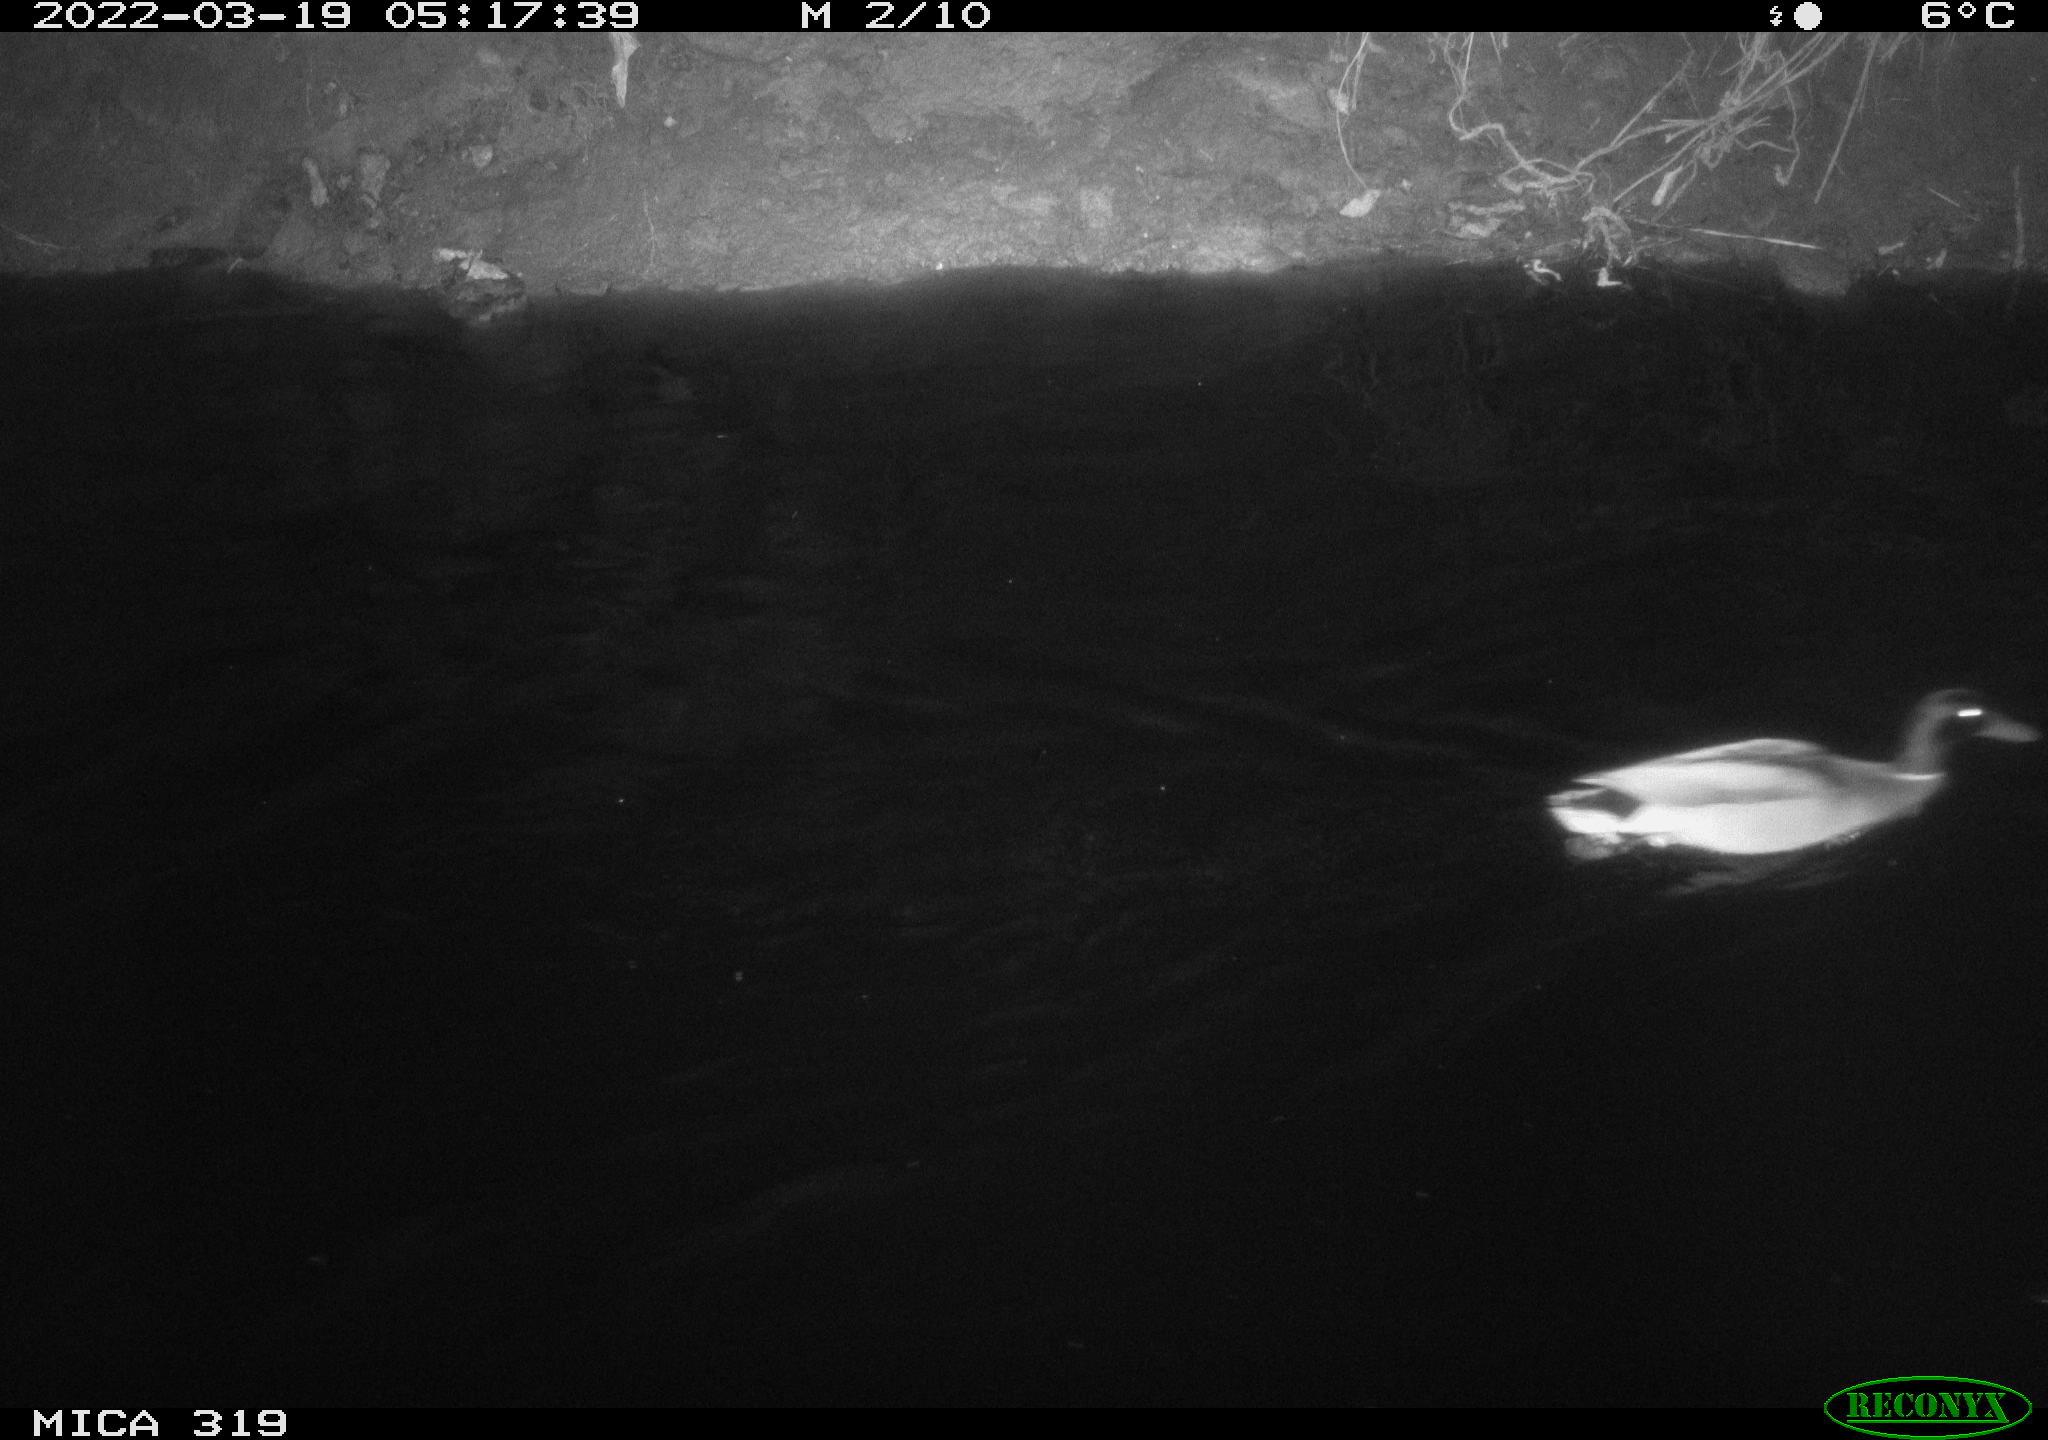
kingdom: Animalia
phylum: Chordata
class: Aves
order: Anseriformes
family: Anatidae
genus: Anas
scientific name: Anas platyrhynchos
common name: Mallard
